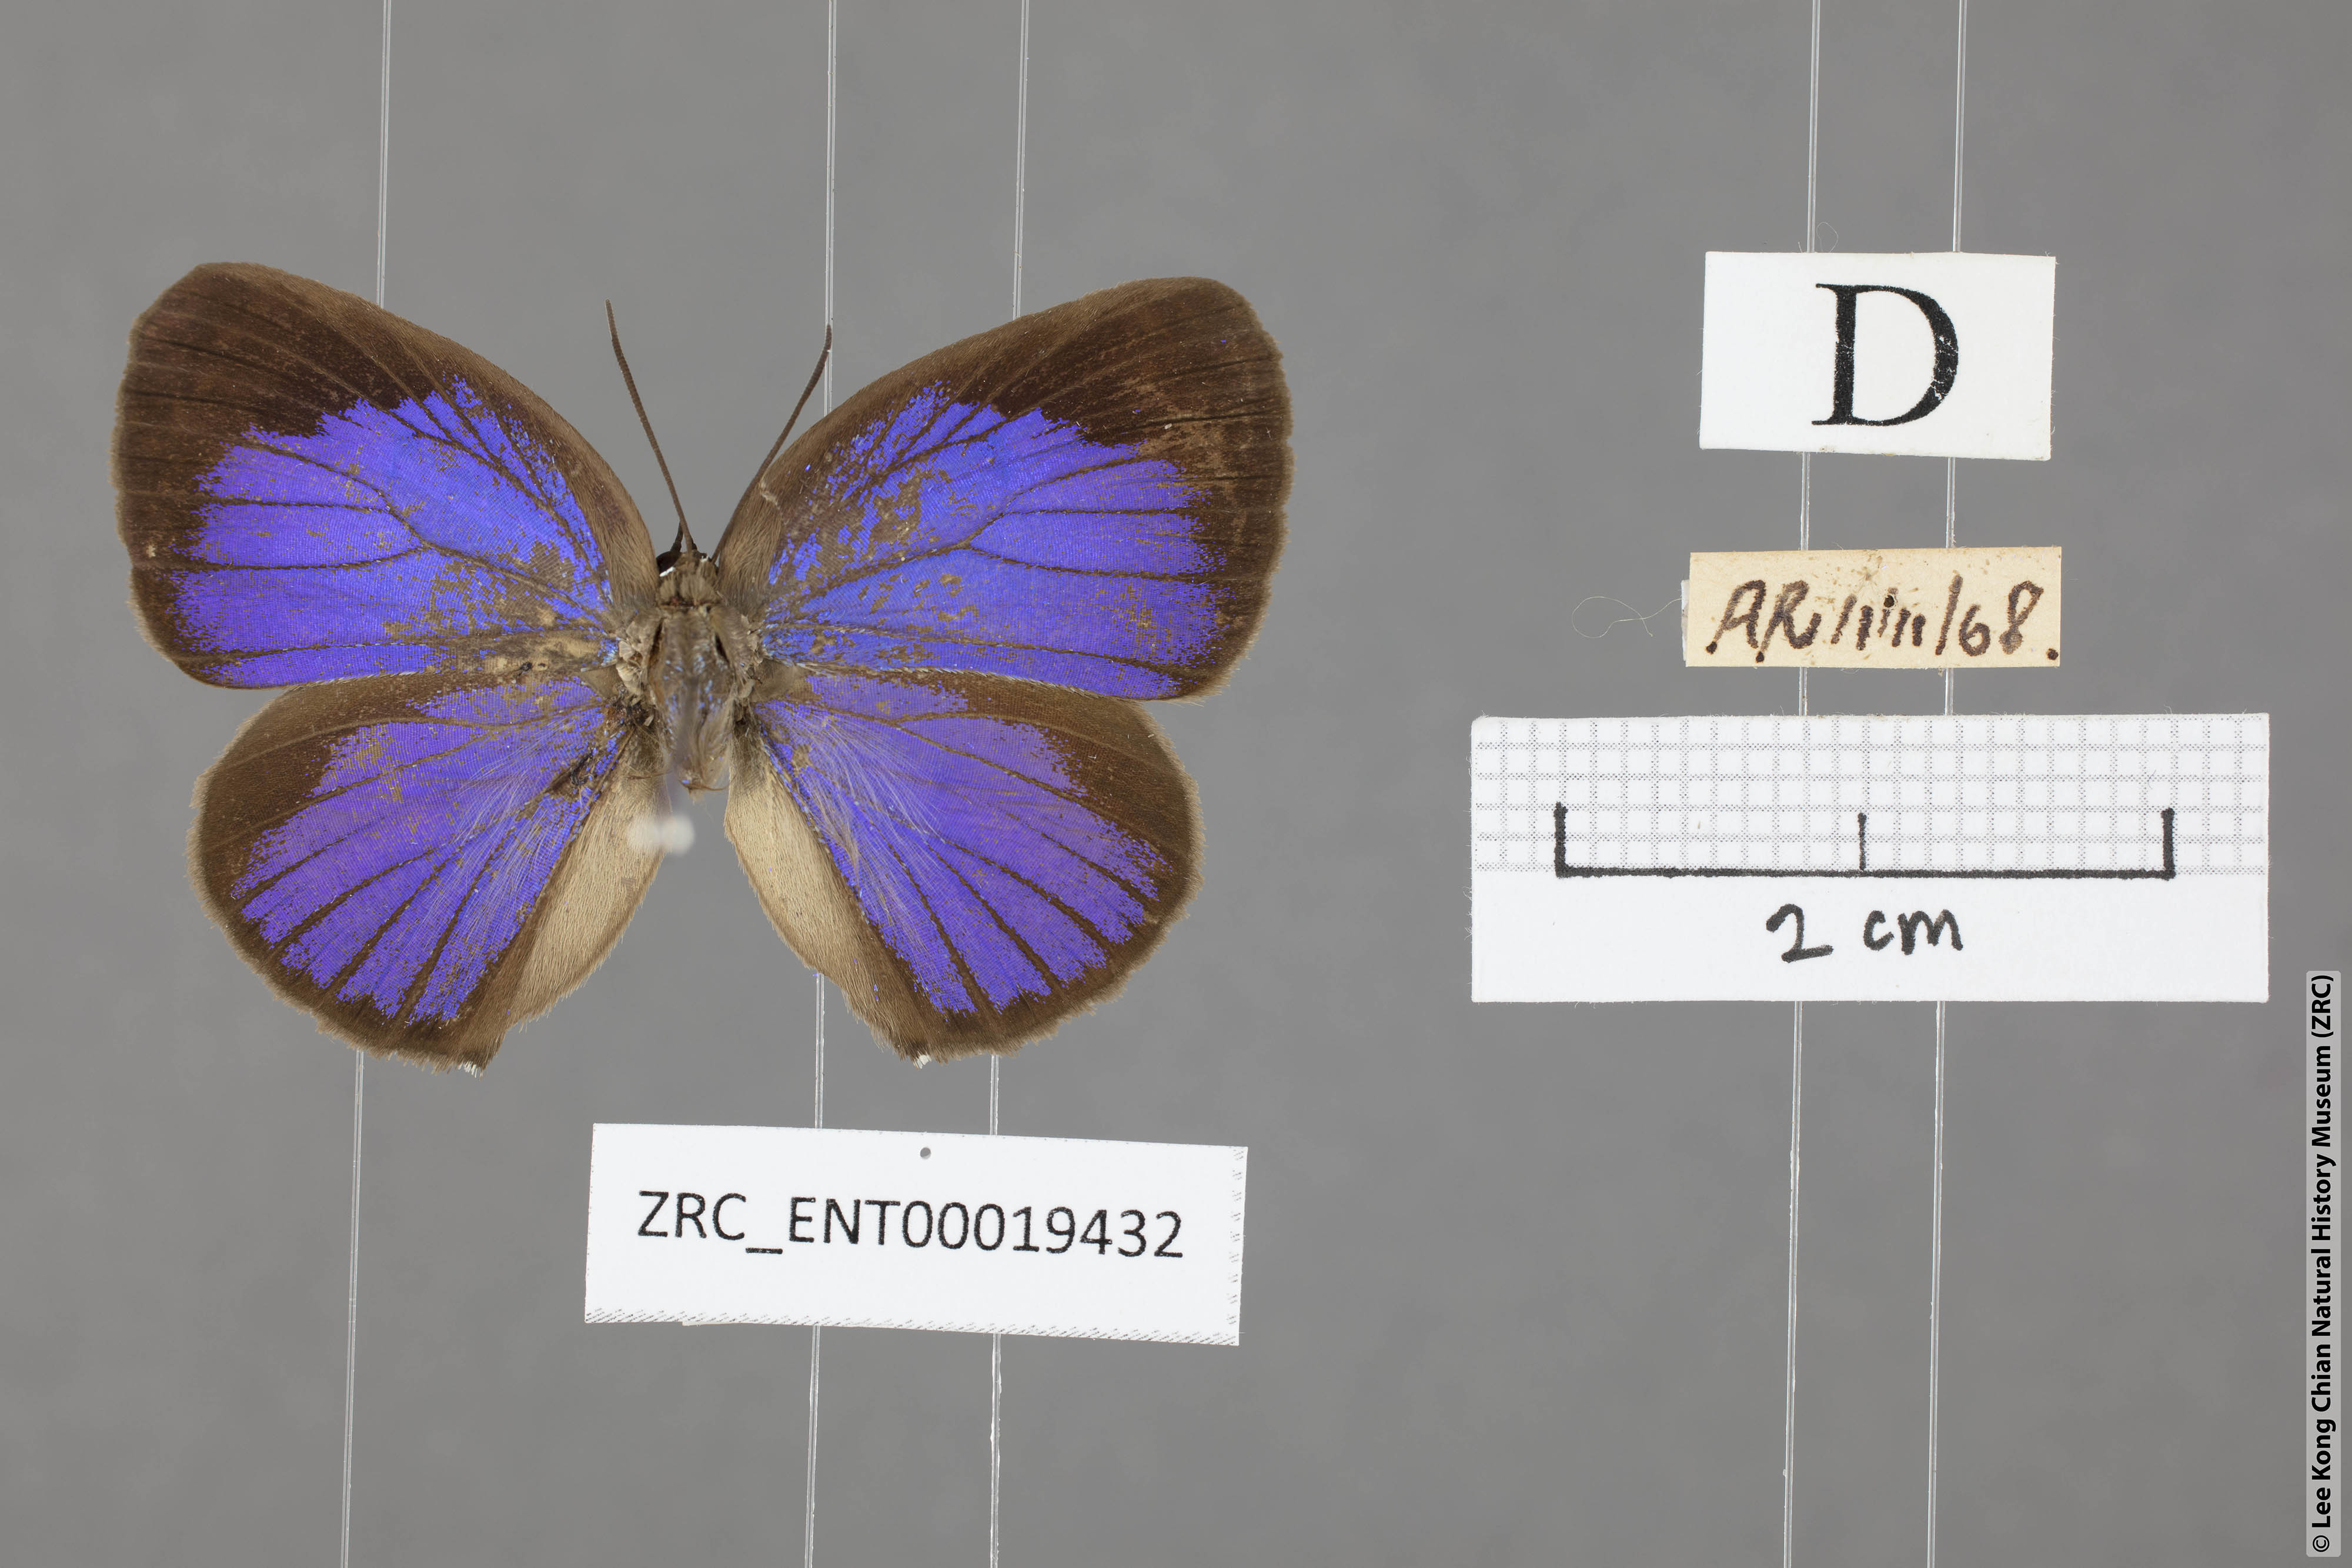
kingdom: Animalia
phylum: Arthropoda
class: Insecta
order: Lepidoptera
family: Lycaenidae
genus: Arhopala
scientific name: Arhopala epimuta
